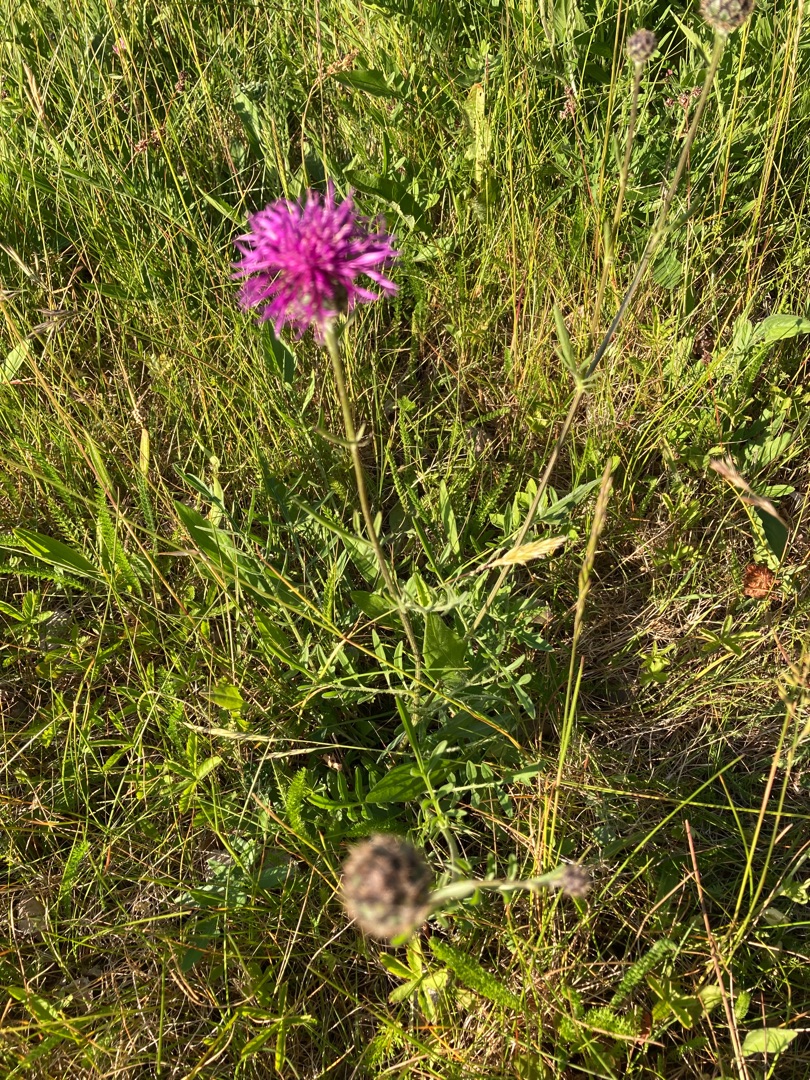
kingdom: Plantae
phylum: Tracheophyta
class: Magnoliopsida
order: Asterales
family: Asteraceae
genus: Centaurea
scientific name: Centaurea scabiosa
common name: Stor knopurt
